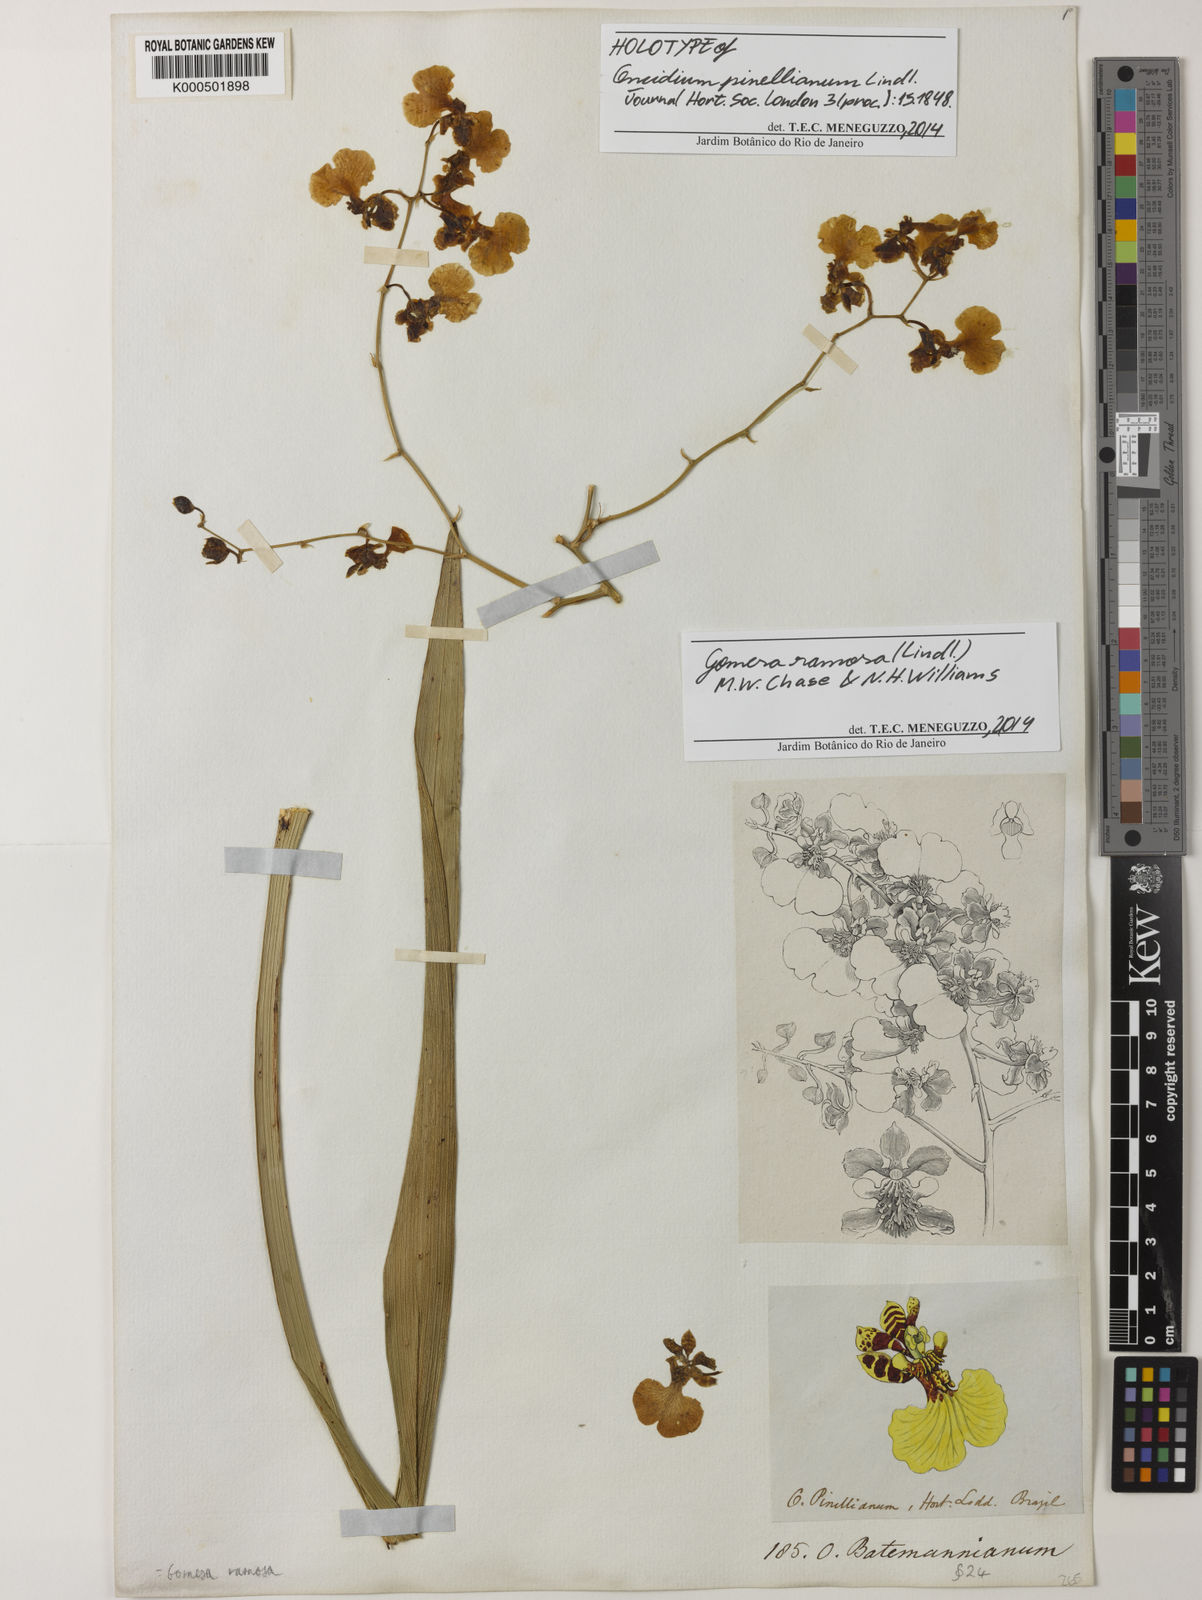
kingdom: Plantae
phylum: Tracheophyta
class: Liliopsida
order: Asparagales
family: Orchidaceae
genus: Gomesa
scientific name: Gomesa ramosa
